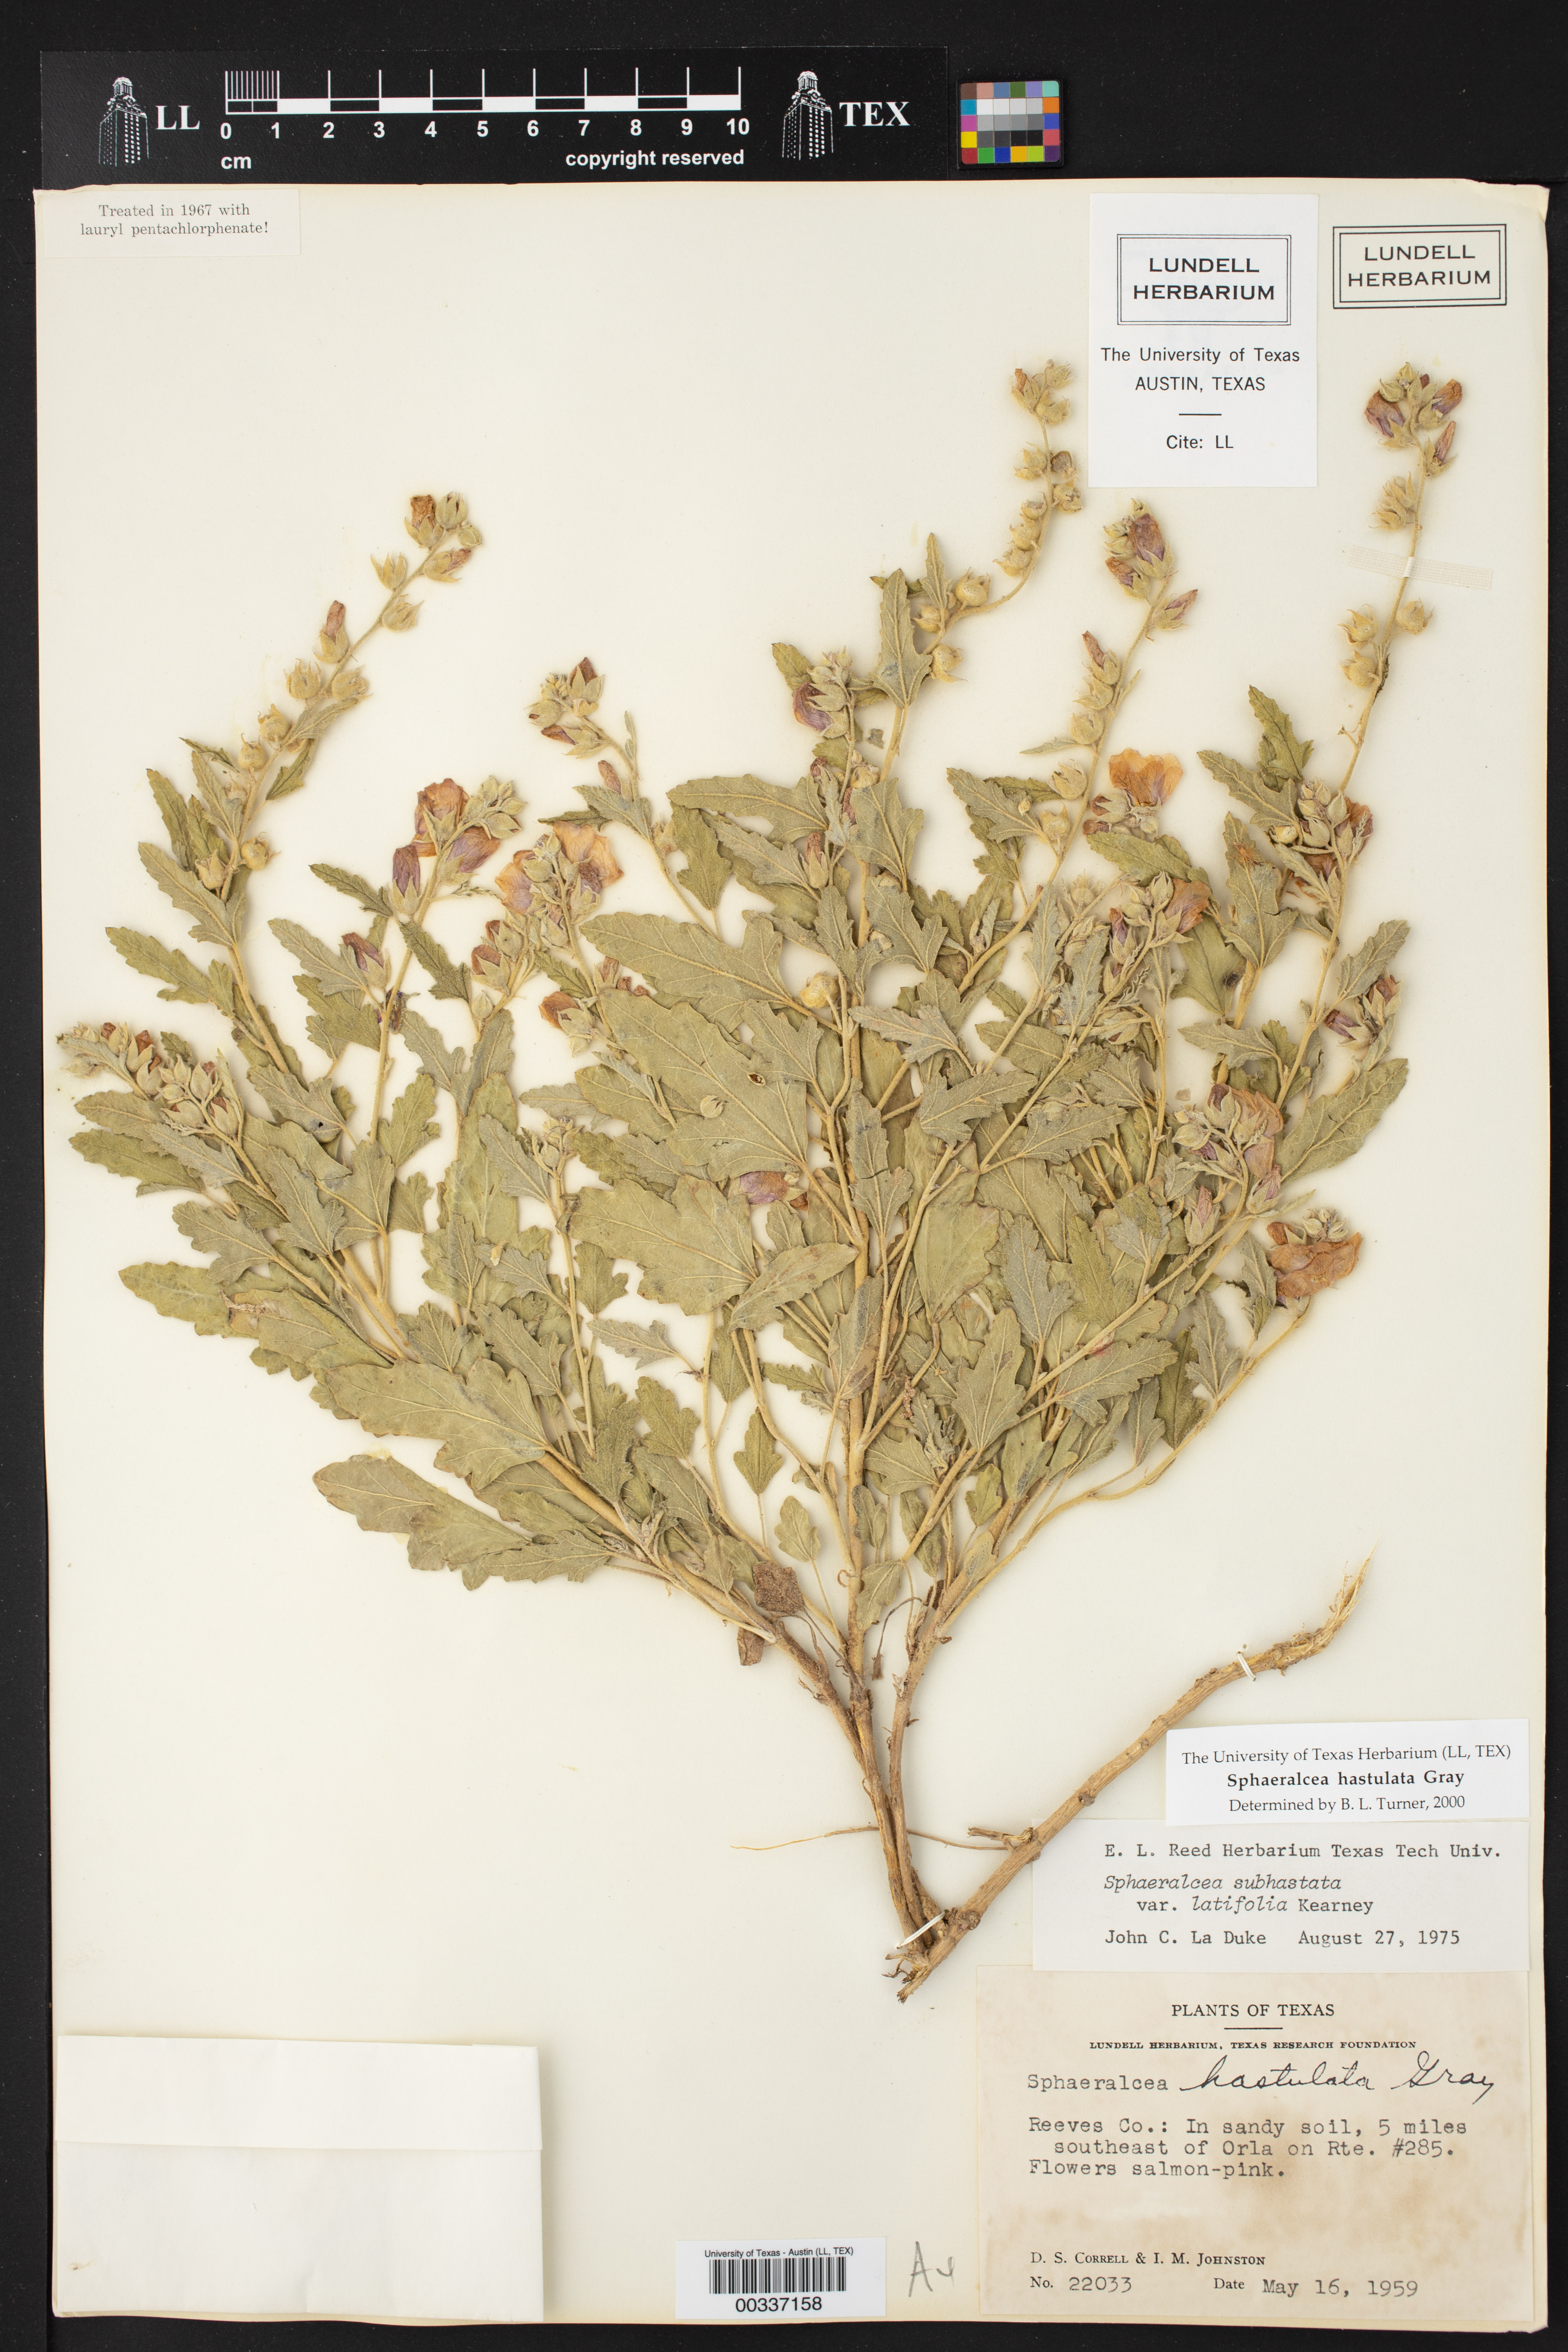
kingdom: Plantae
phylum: Tracheophyta
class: Magnoliopsida
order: Malvales
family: Malvaceae
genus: Sphaeralcea
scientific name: Sphaeralcea hastulata
